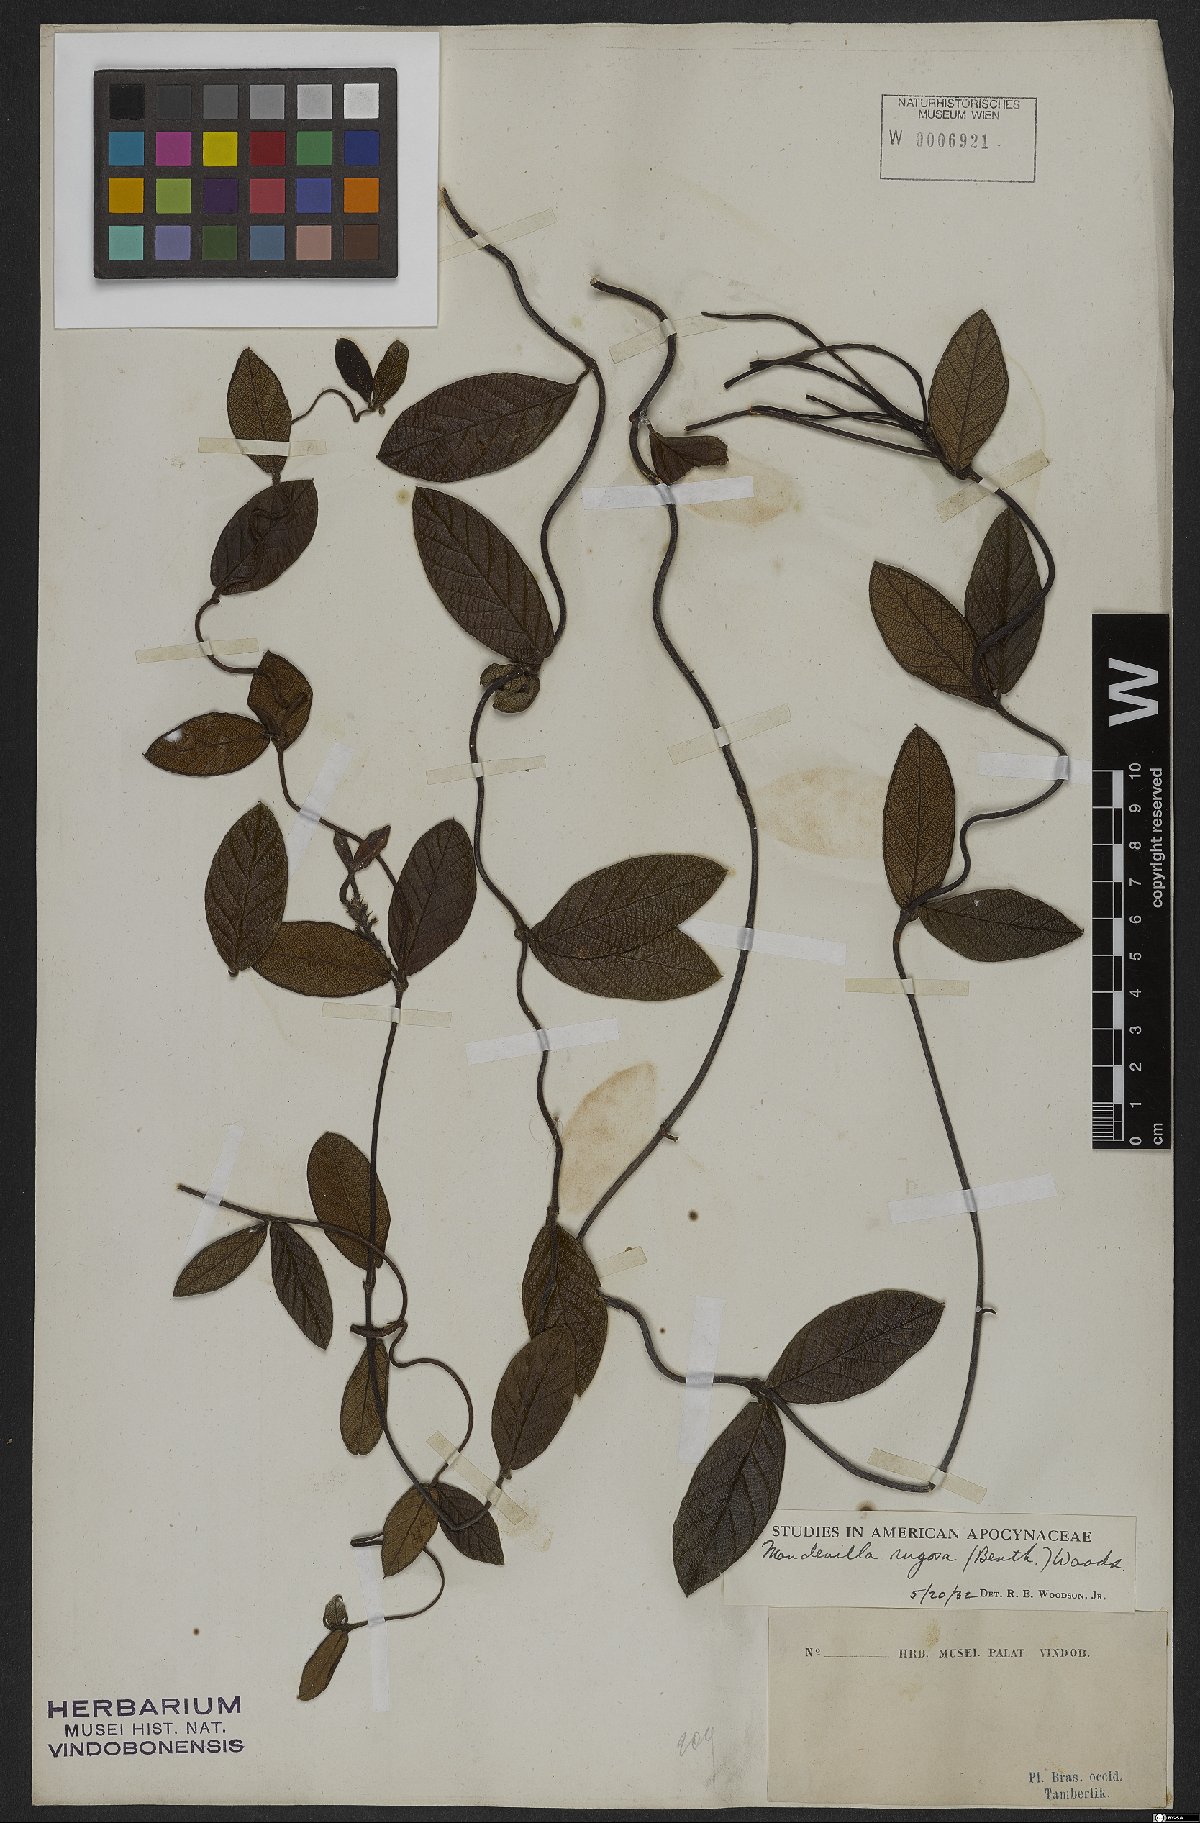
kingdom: Plantae
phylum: Tracheophyta
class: Magnoliopsida
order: Gentianales
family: Apocynaceae
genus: Mandevilla
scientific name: Mandevilla rugosa
